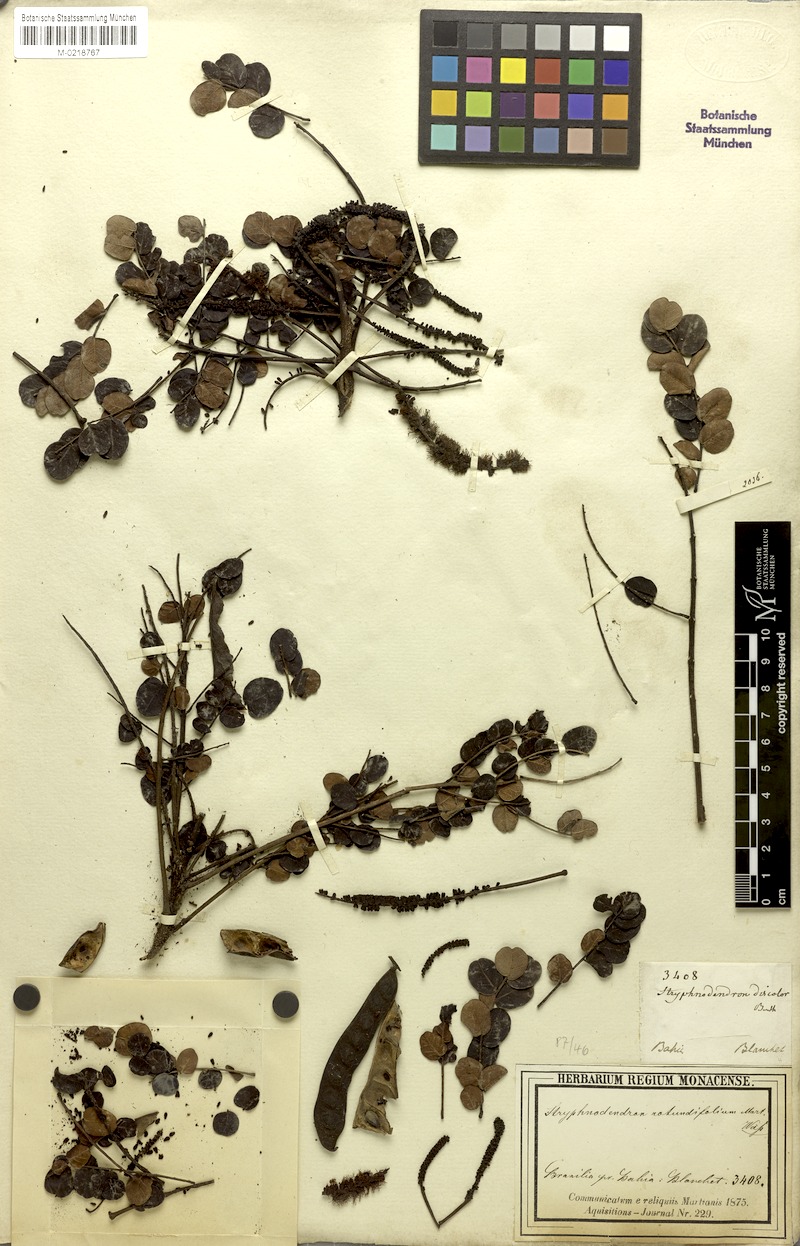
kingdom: Plantae
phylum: Tracheophyta
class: Magnoliopsida
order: Fabales
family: Fabaceae
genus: Stryphnodendron
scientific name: Stryphnodendron rotundifolium
